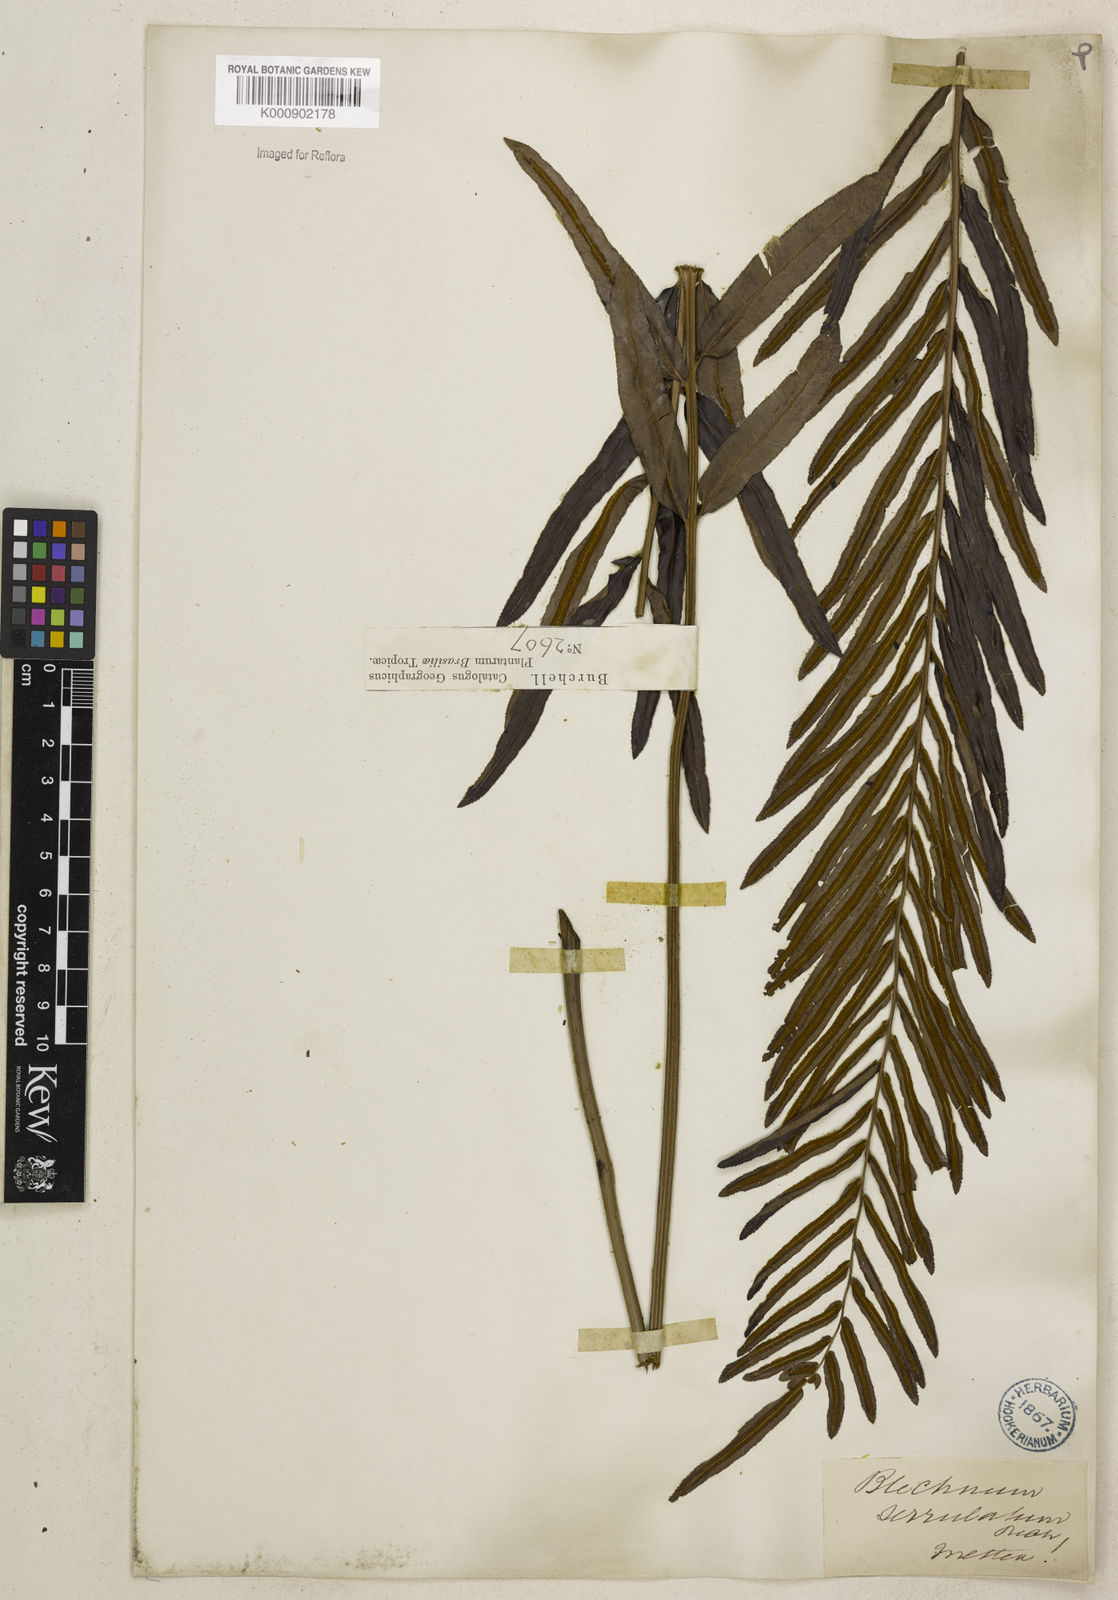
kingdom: Plantae
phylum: Tracheophyta
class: Polypodiopsida
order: Polypodiales
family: Blechnaceae
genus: Telmatoblechnum
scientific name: Telmatoblechnum serrulatum
